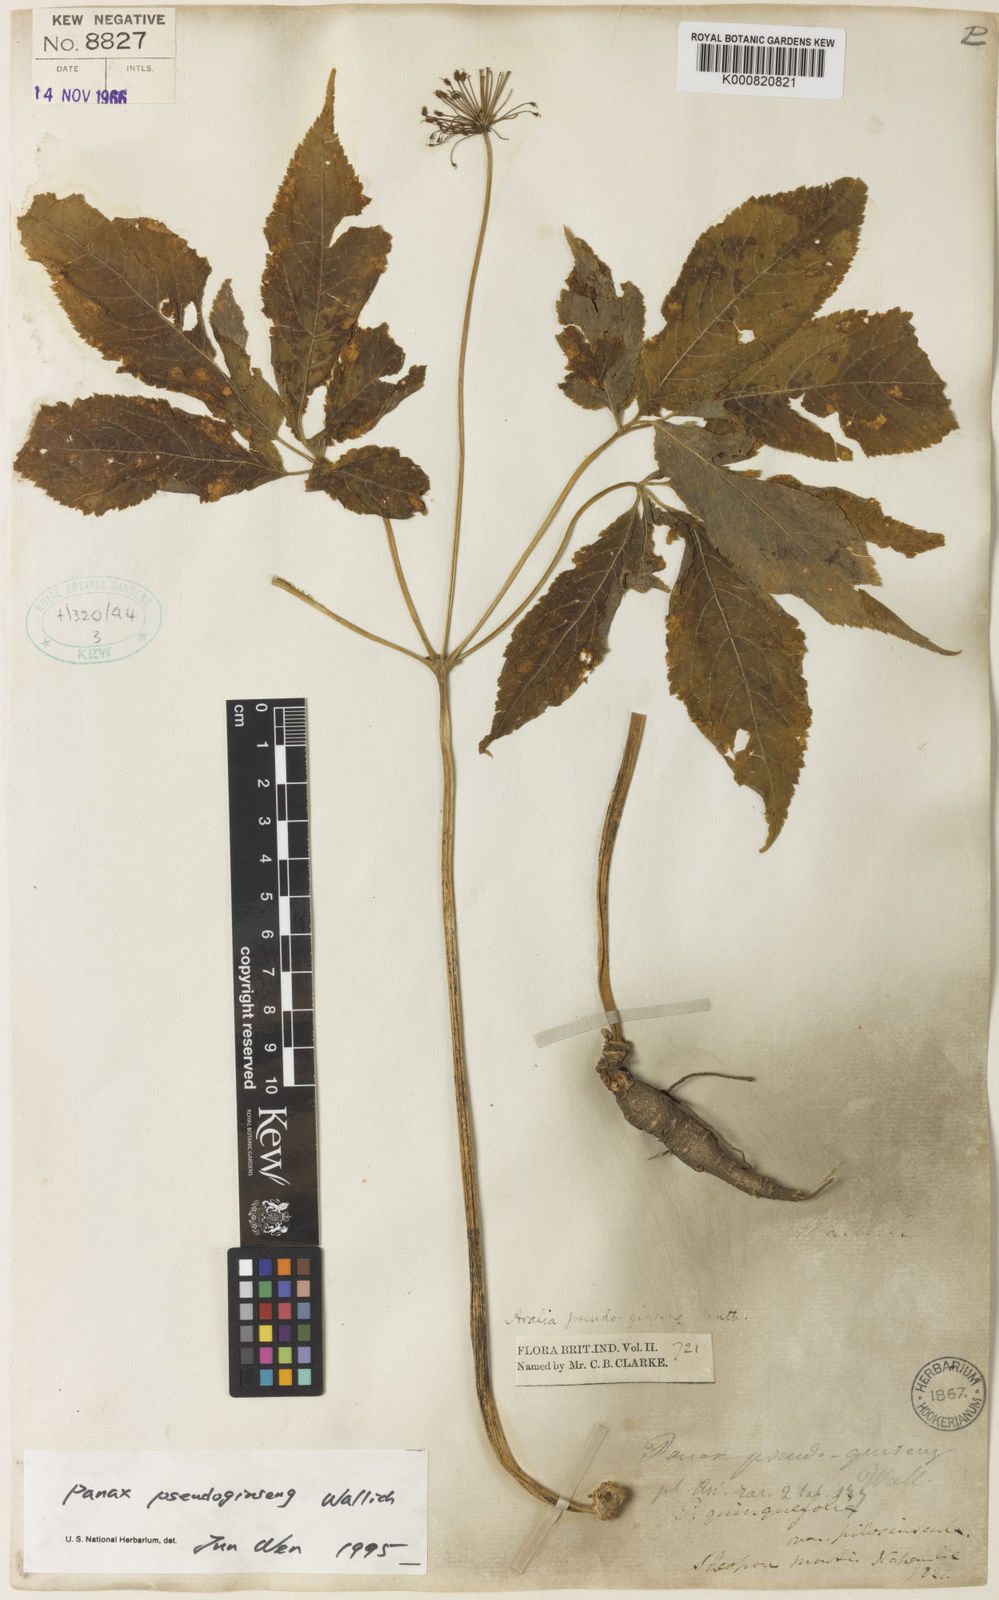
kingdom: Plantae
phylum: Tracheophyta
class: Magnoliopsida
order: Apiales
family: Araliaceae
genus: Panax
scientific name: Panax pseudoginseng
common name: Pseudoginseng
